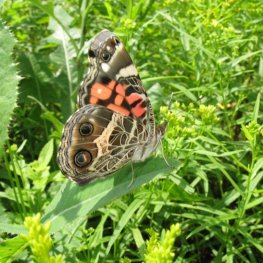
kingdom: Animalia
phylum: Arthropoda
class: Insecta
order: Lepidoptera
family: Nymphalidae
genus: Vanessa
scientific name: Vanessa virginiensis
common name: American Lady
